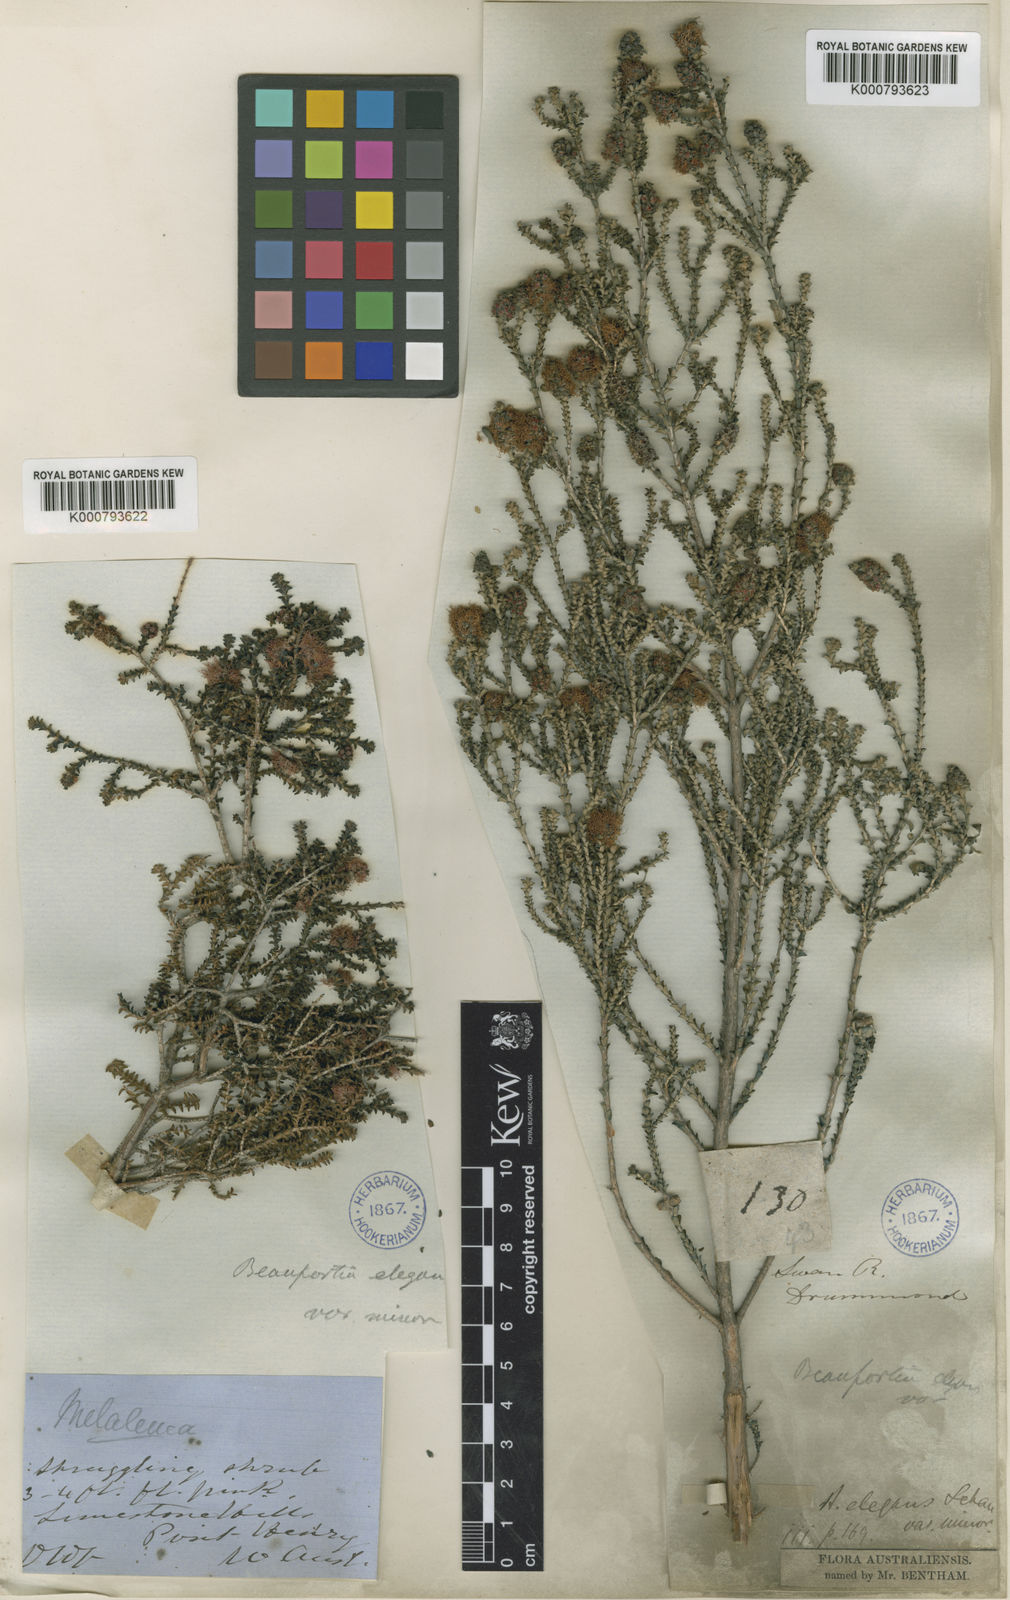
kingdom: Plantae
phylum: Tracheophyta
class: Magnoliopsida
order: Myrtales
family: Myrtaceae
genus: Melaleuca
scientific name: Melaleuca scitula
